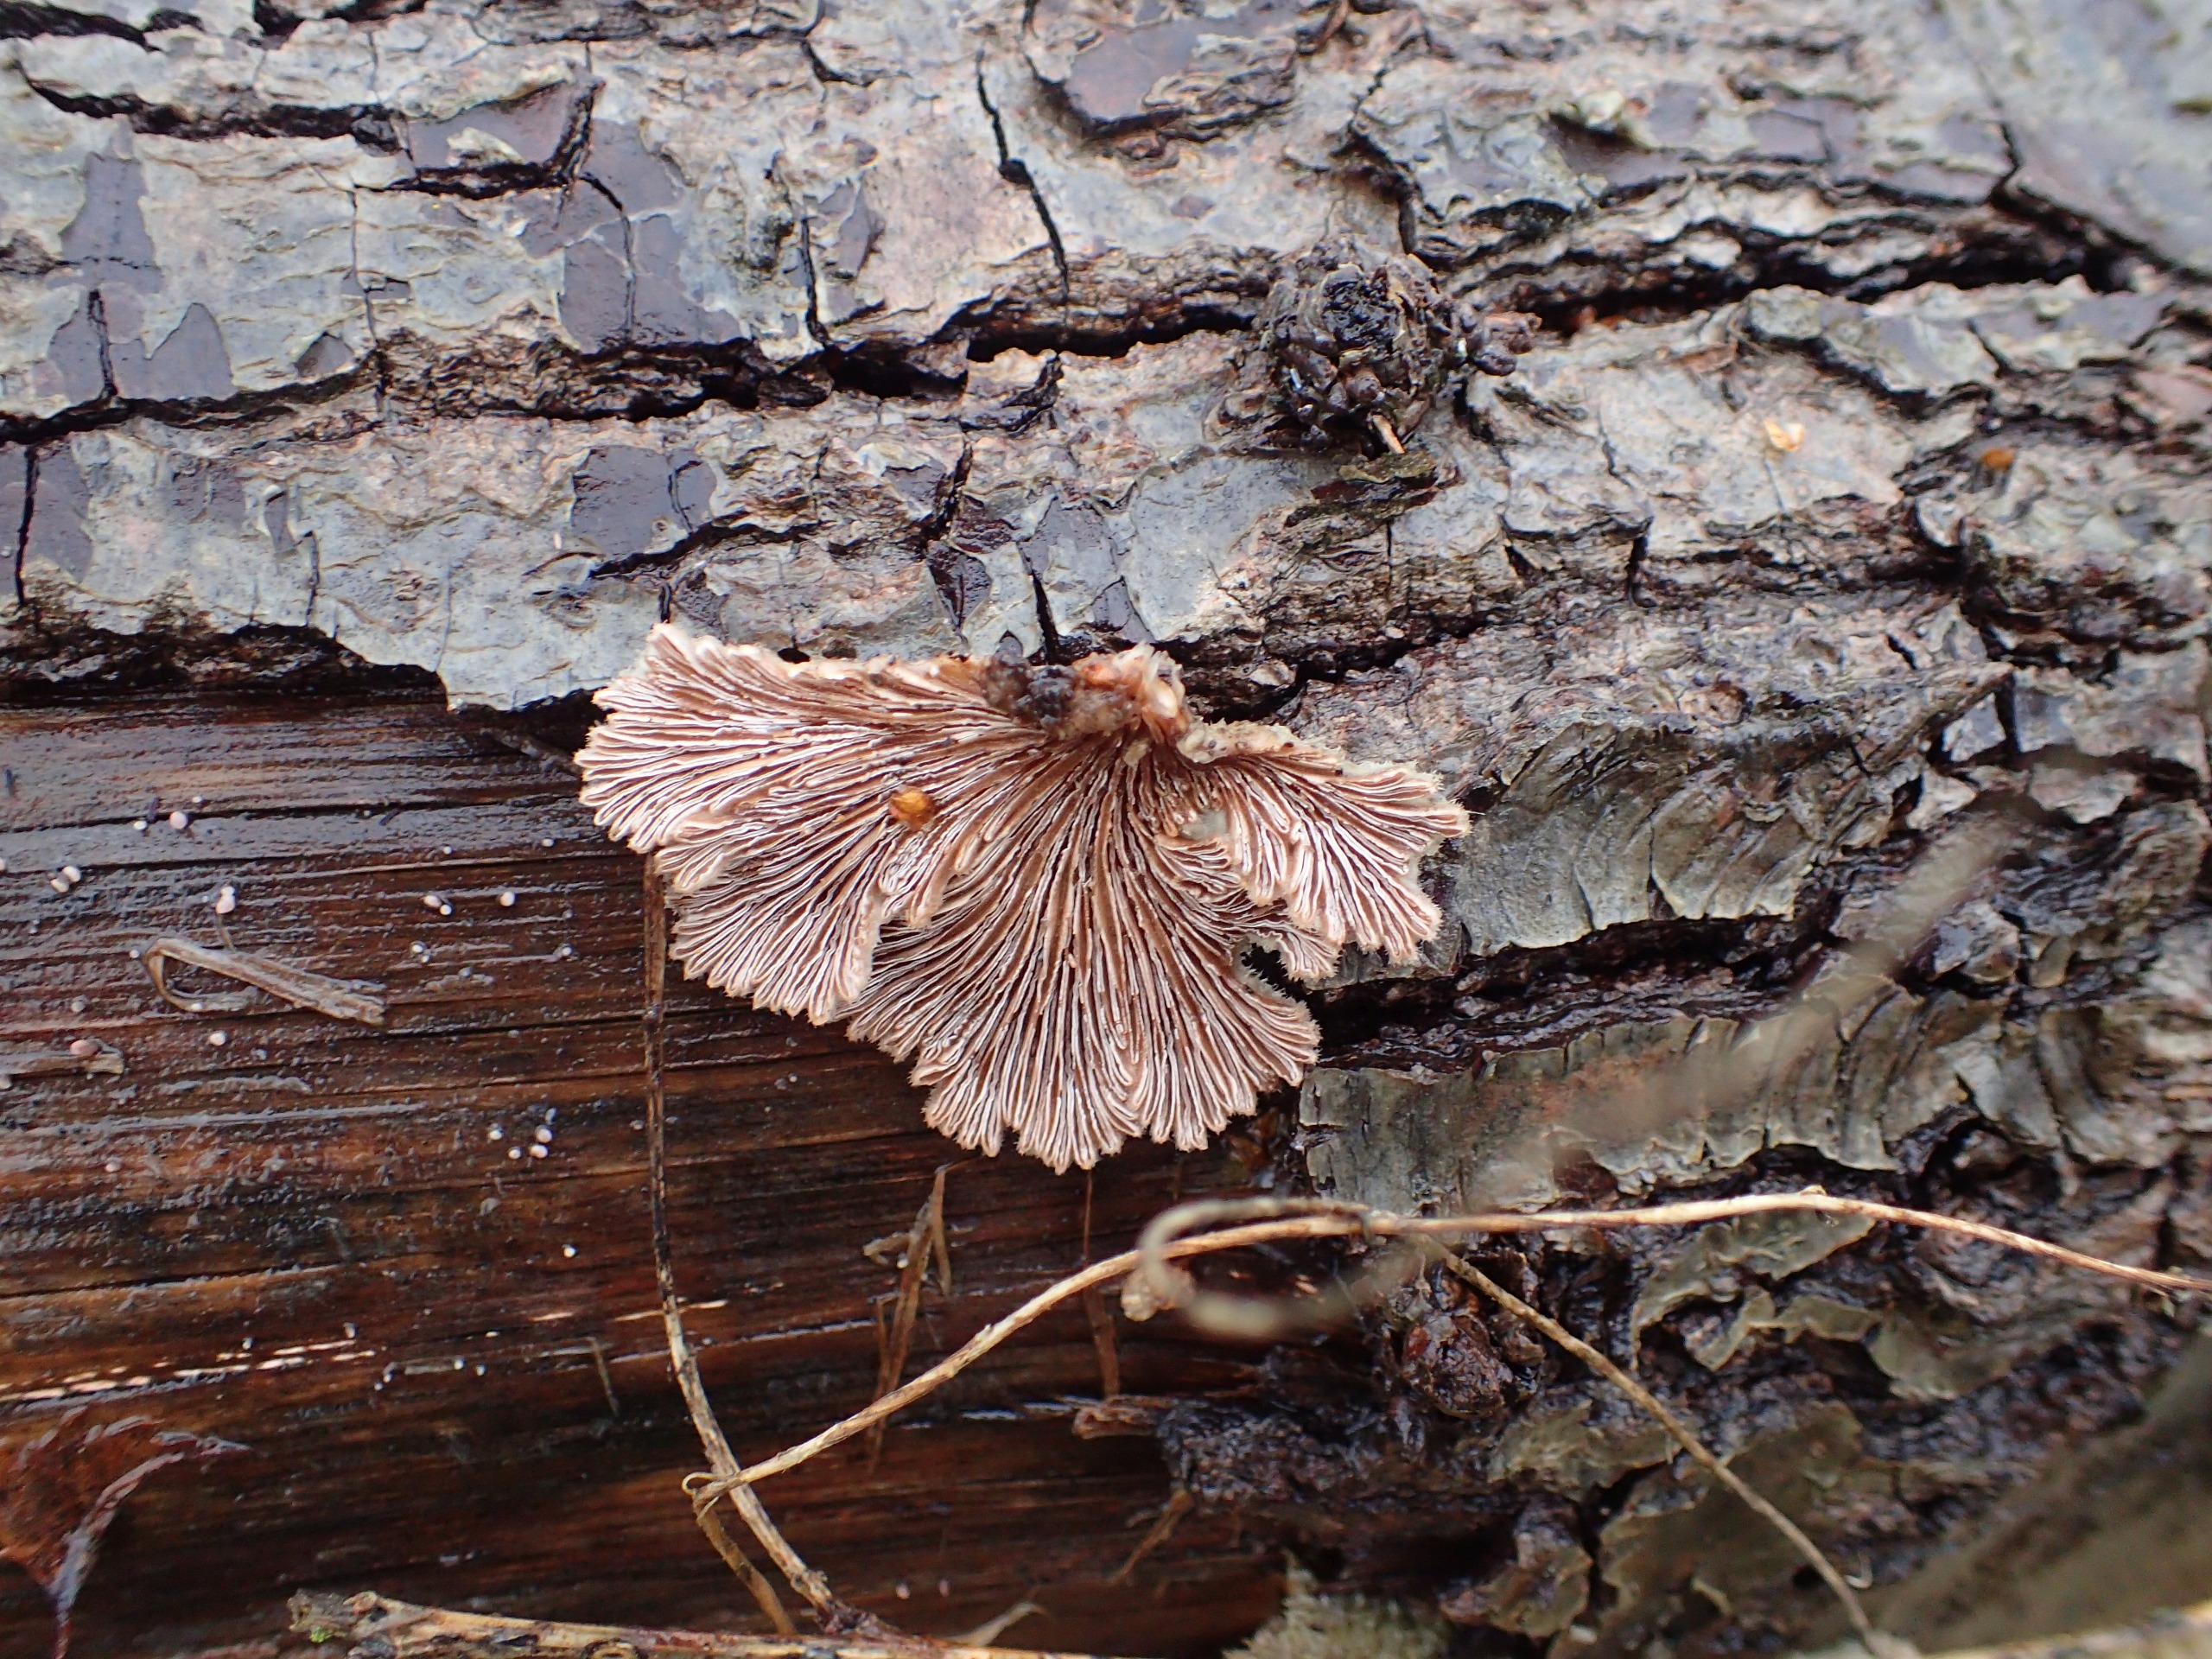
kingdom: Fungi
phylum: Basidiomycota
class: Agaricomycetes
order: Agaricales
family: Schizophyllaceae
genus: Schizophyllum
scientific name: Schizophyllum commune
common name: Kløvblad
